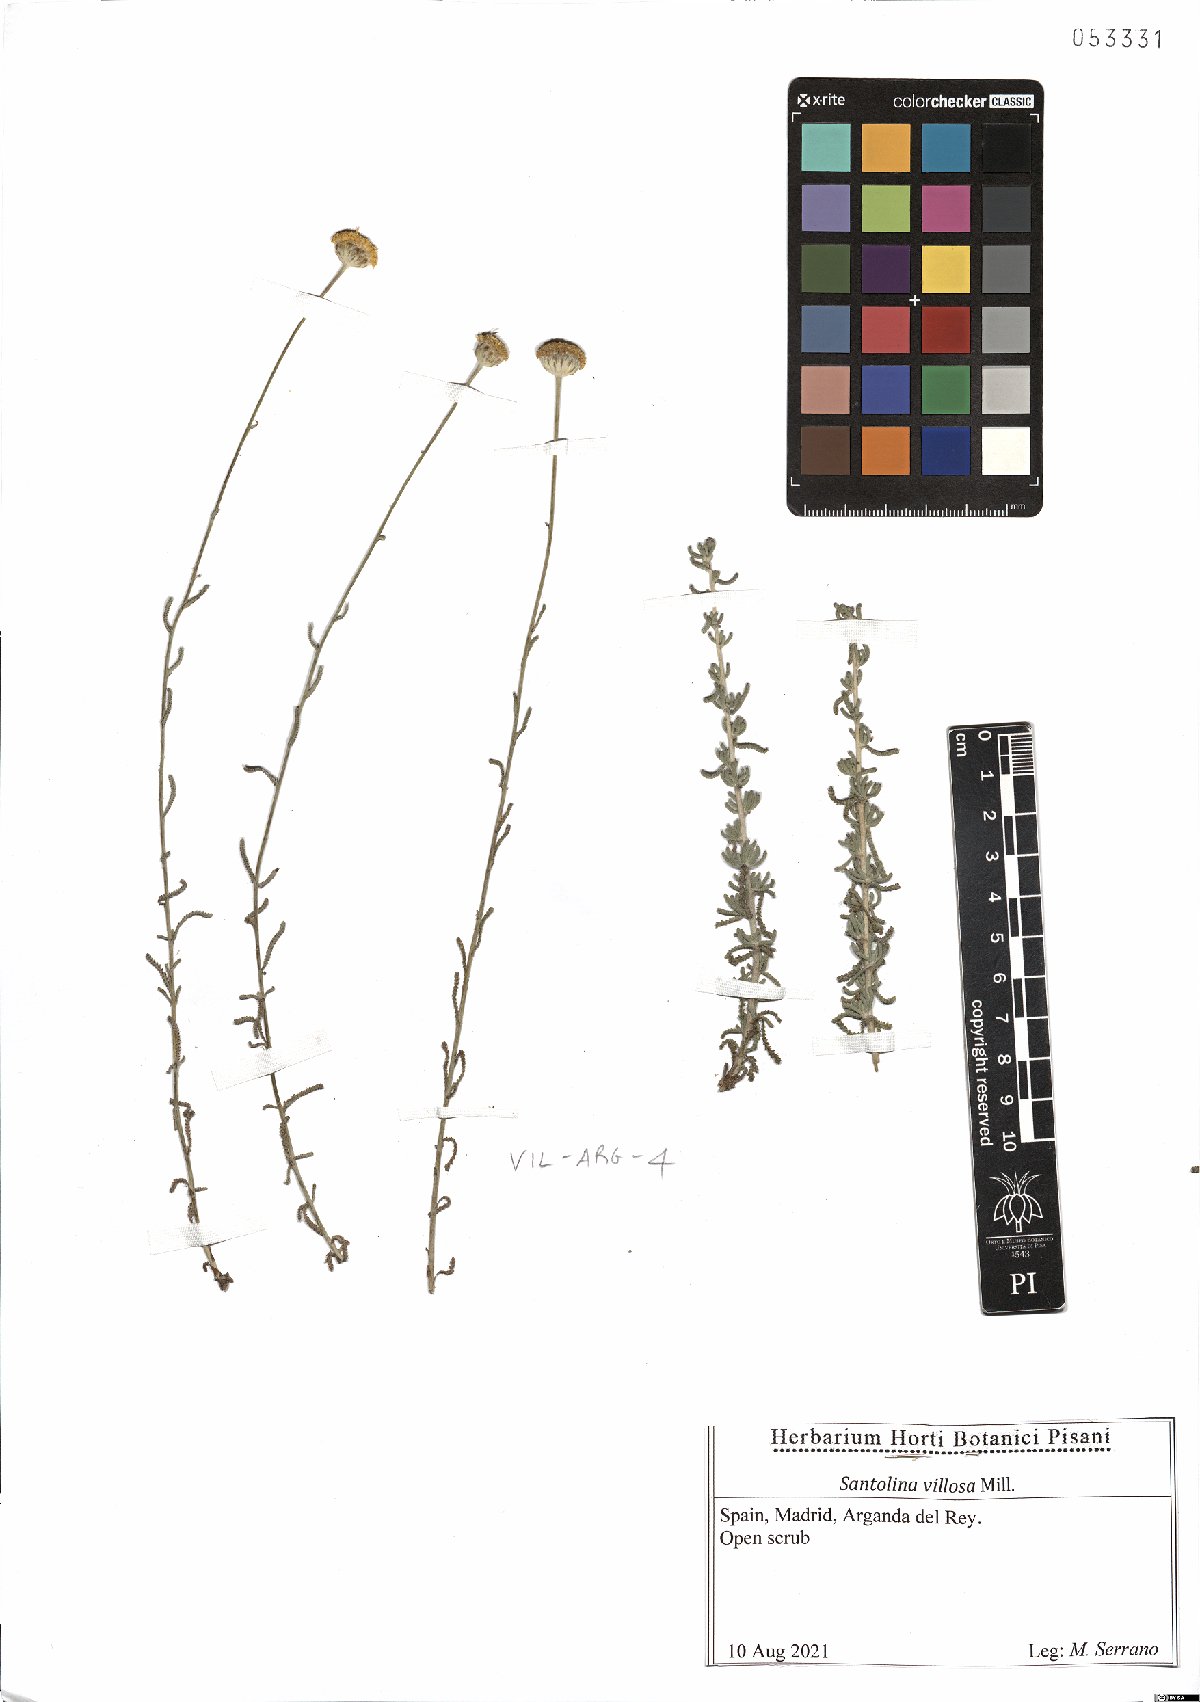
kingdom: Plantae
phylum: Tracheophyta
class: Magnoliopsida
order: Asterales
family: Asteraceae
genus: Santolina
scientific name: Santolina chamaecyparissus
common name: Lavender-cotton
